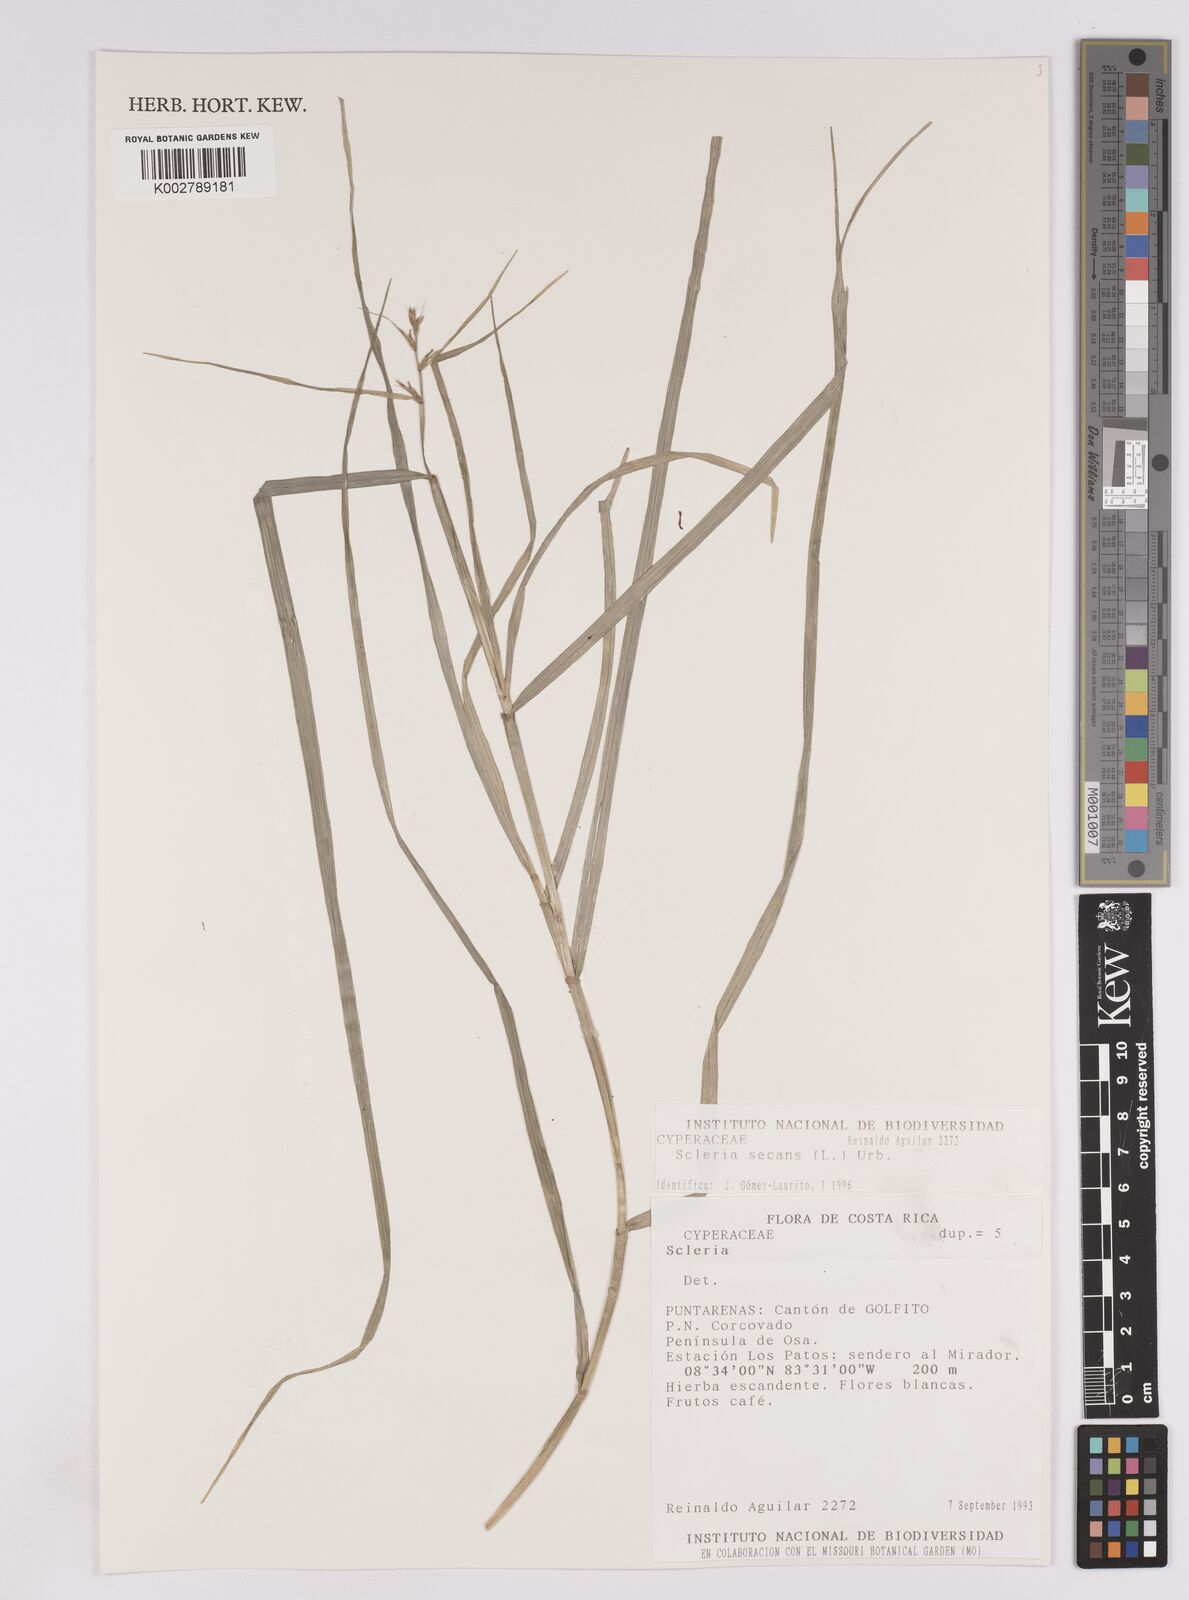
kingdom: Plantae
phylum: Tracheophyta
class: Liliopsida
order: Poales
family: Cyperaceae
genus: Scleria
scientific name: Scleria secans
